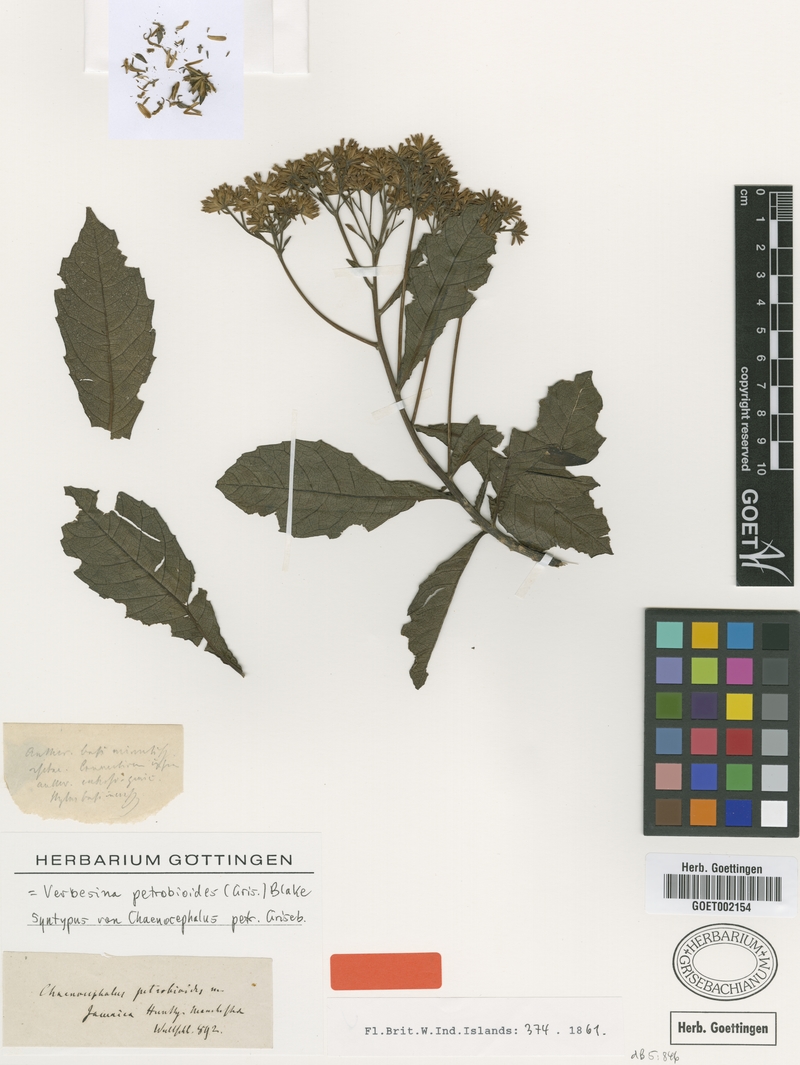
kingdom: Plantae
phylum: Tracheophyta
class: Magnoliopsida
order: Asterales
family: Asteraceae
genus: Verbesina
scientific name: Verbesina petrobioides
